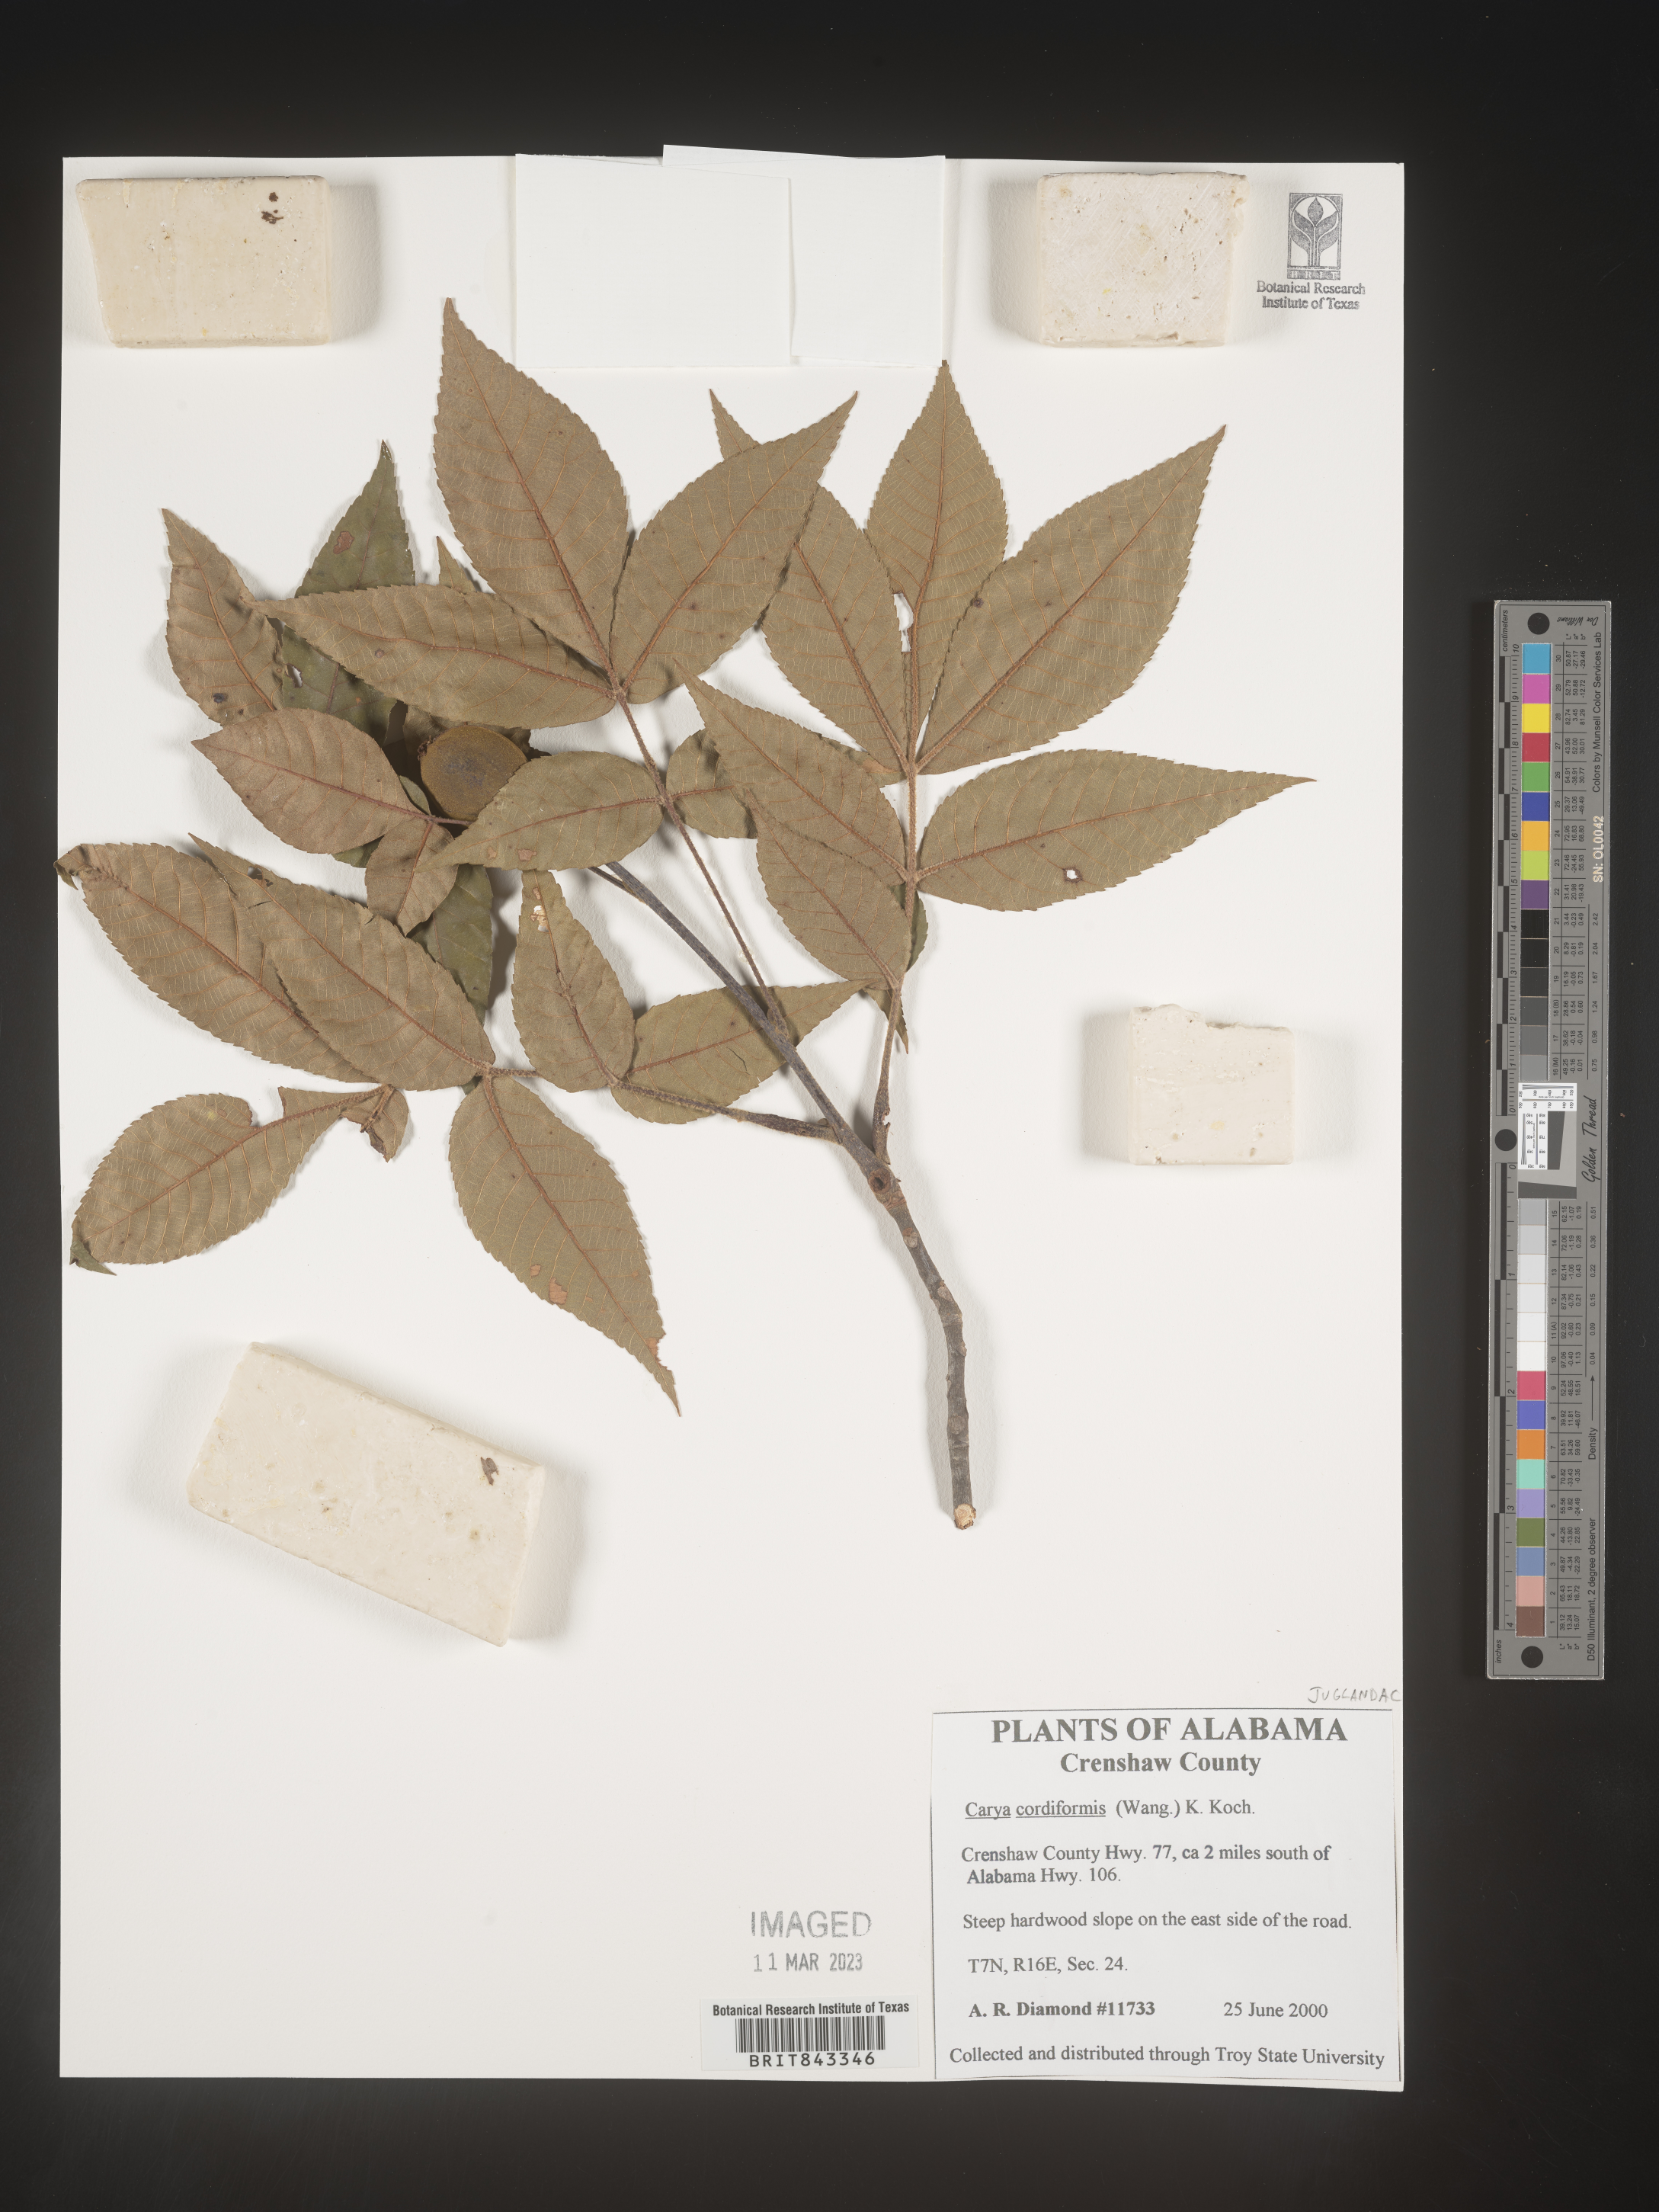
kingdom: Plantae
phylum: Tracheophyta
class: Magnoliopsida
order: Fagales
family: Juglandaceae
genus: Carya
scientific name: Carya cordiformis
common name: Bitternut hickory
